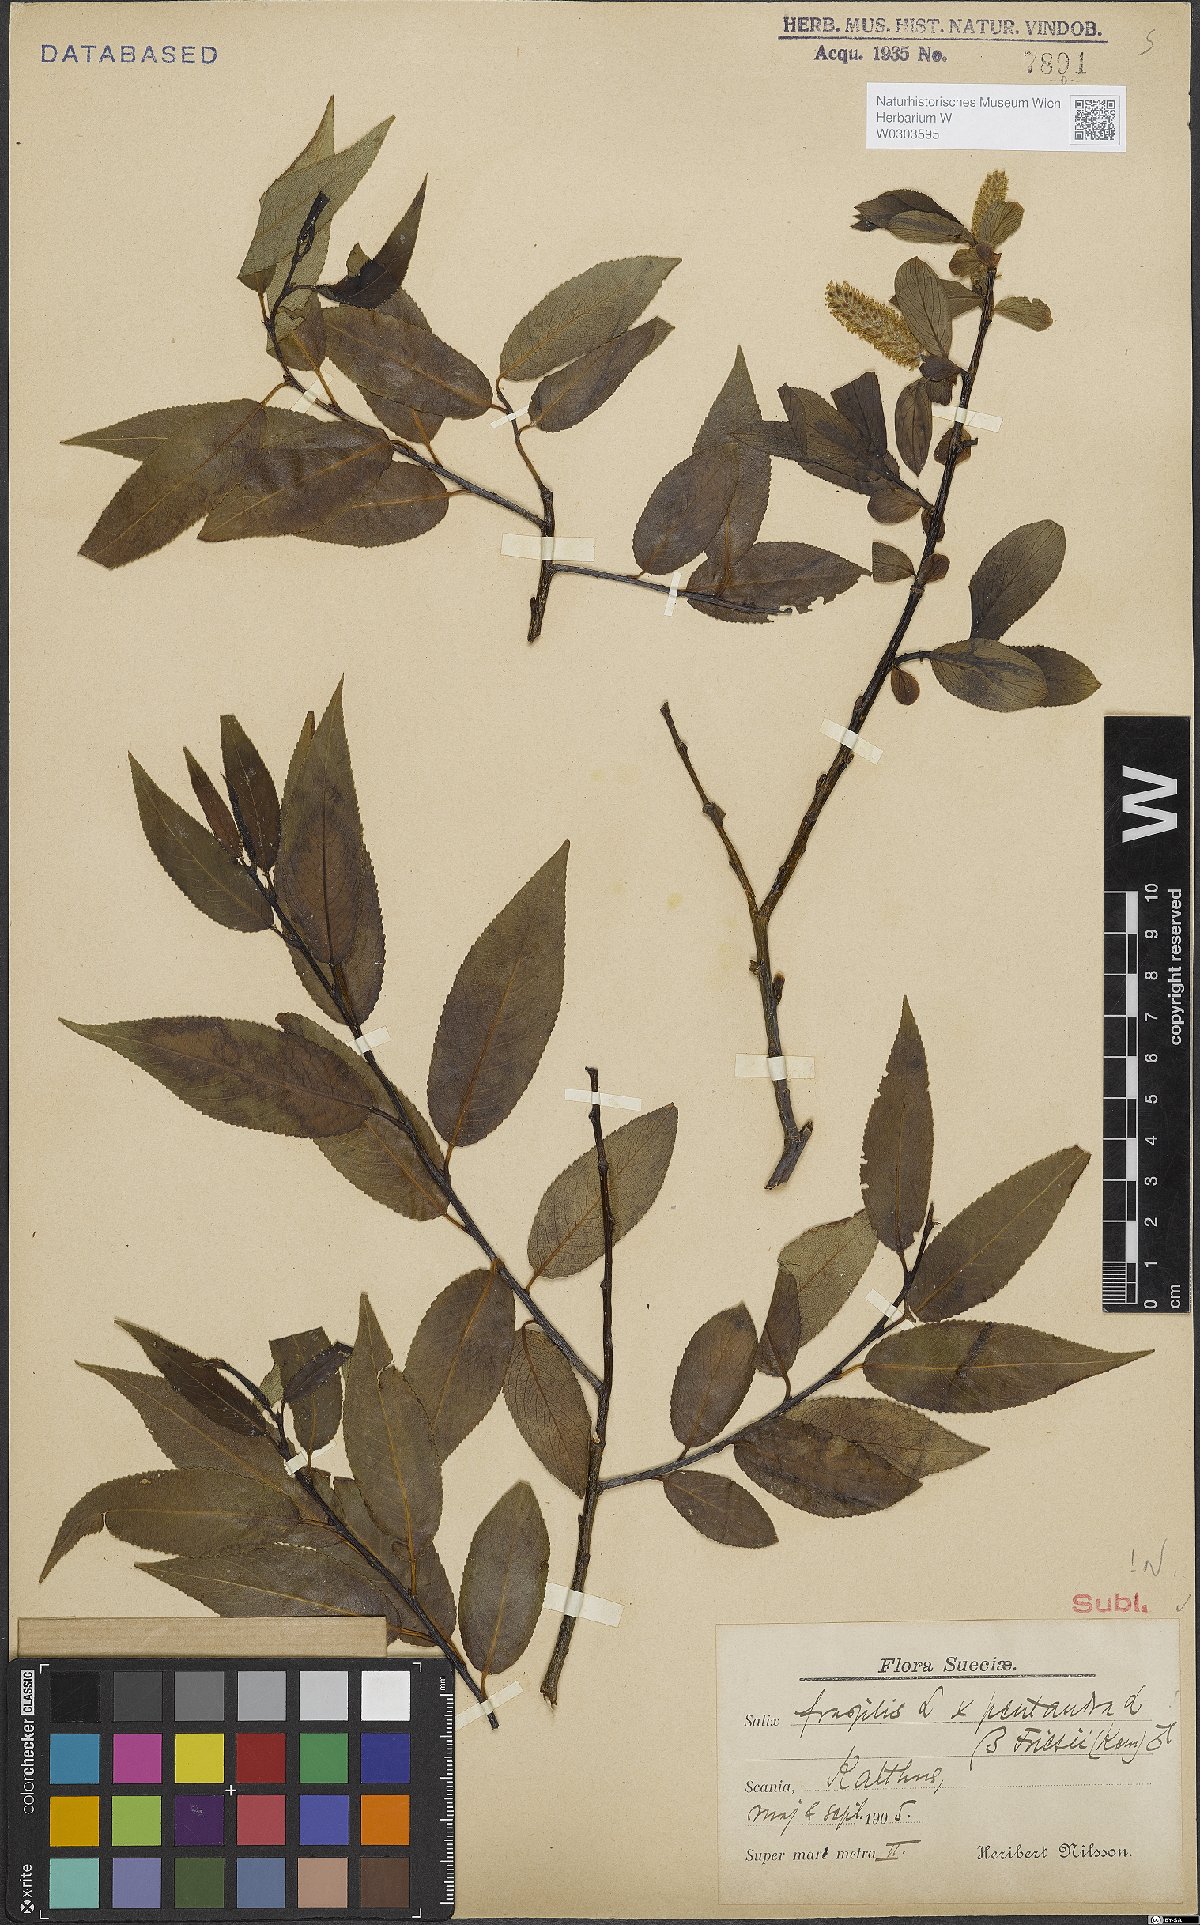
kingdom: Plantae
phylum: Tracheophyta
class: Magnoliopsida
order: Malpighiales
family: Salicaceae
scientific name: Salicaceae
